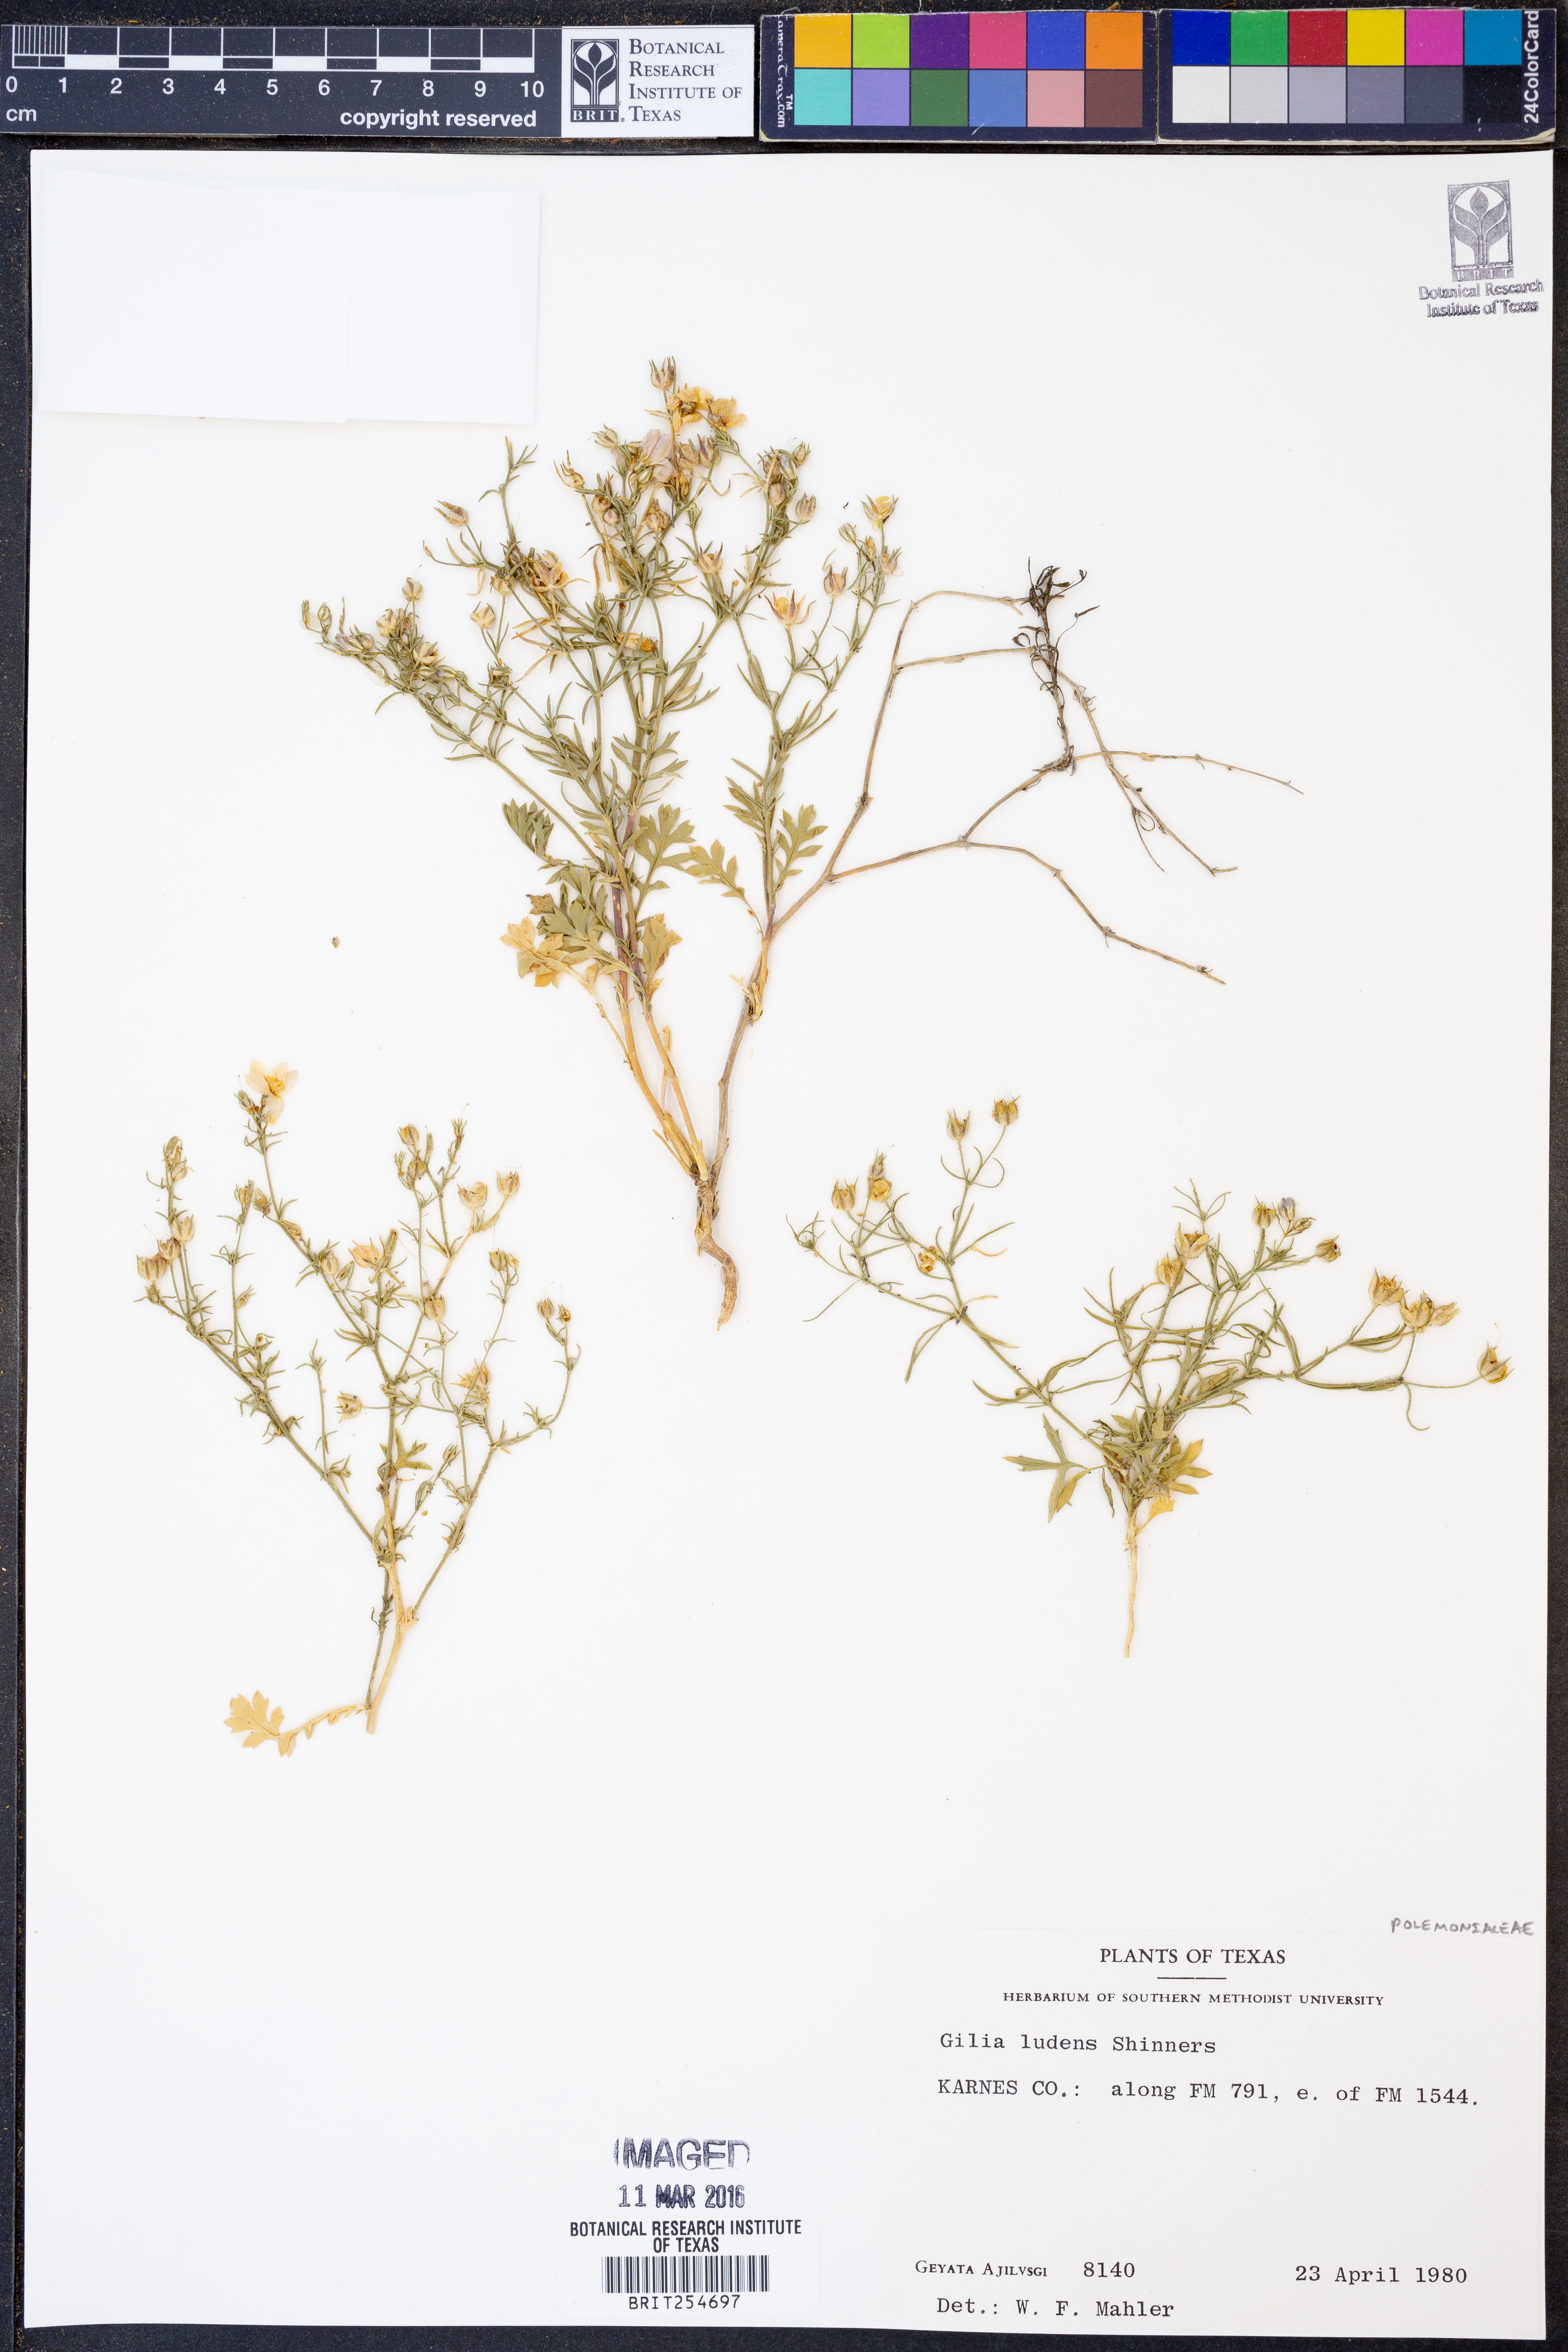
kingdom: Plantae
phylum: Tracheophyta
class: Magnoliopsida
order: Ericales
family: Polemoniaceae
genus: Giliastrum
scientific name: Giliastrum ludens
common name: Rio grande gilia
